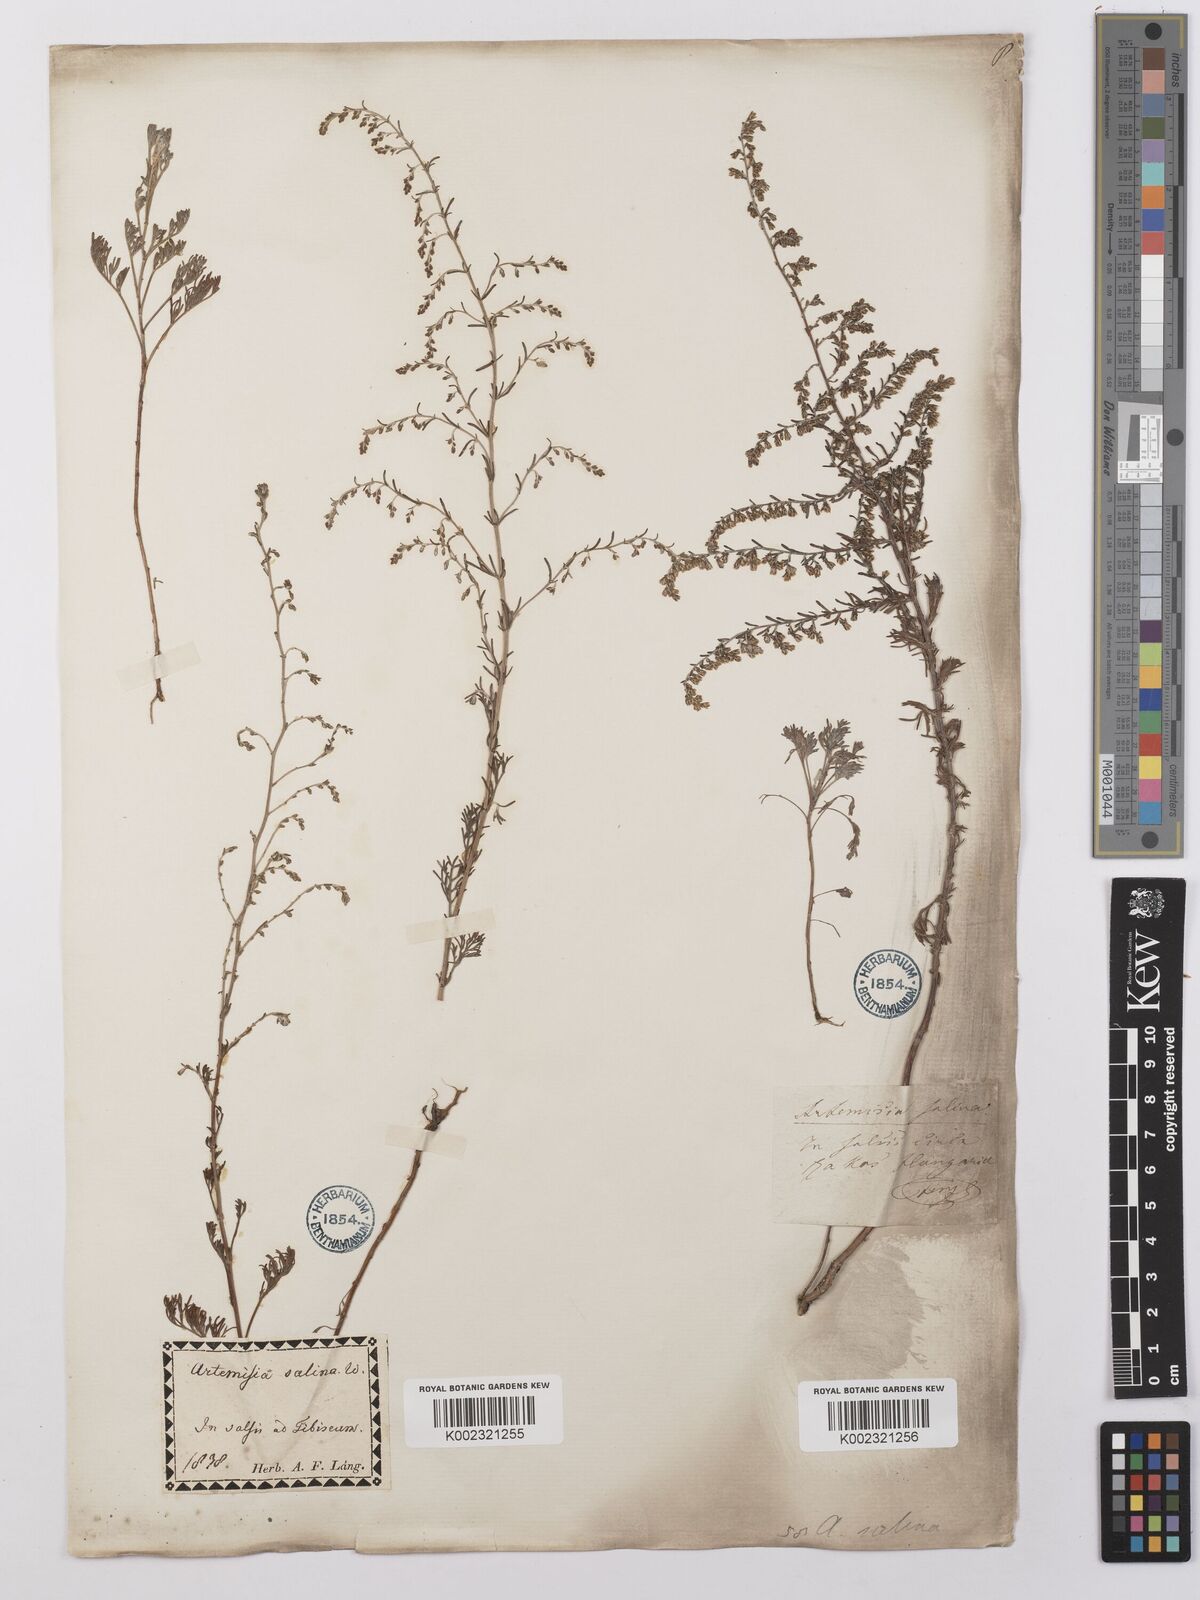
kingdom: Plantae
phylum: Tracheophyta
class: Magnoliopsida
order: Asterales
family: Asteraceae
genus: Artemisia
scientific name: Artemisia maritima
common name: Wormseed
